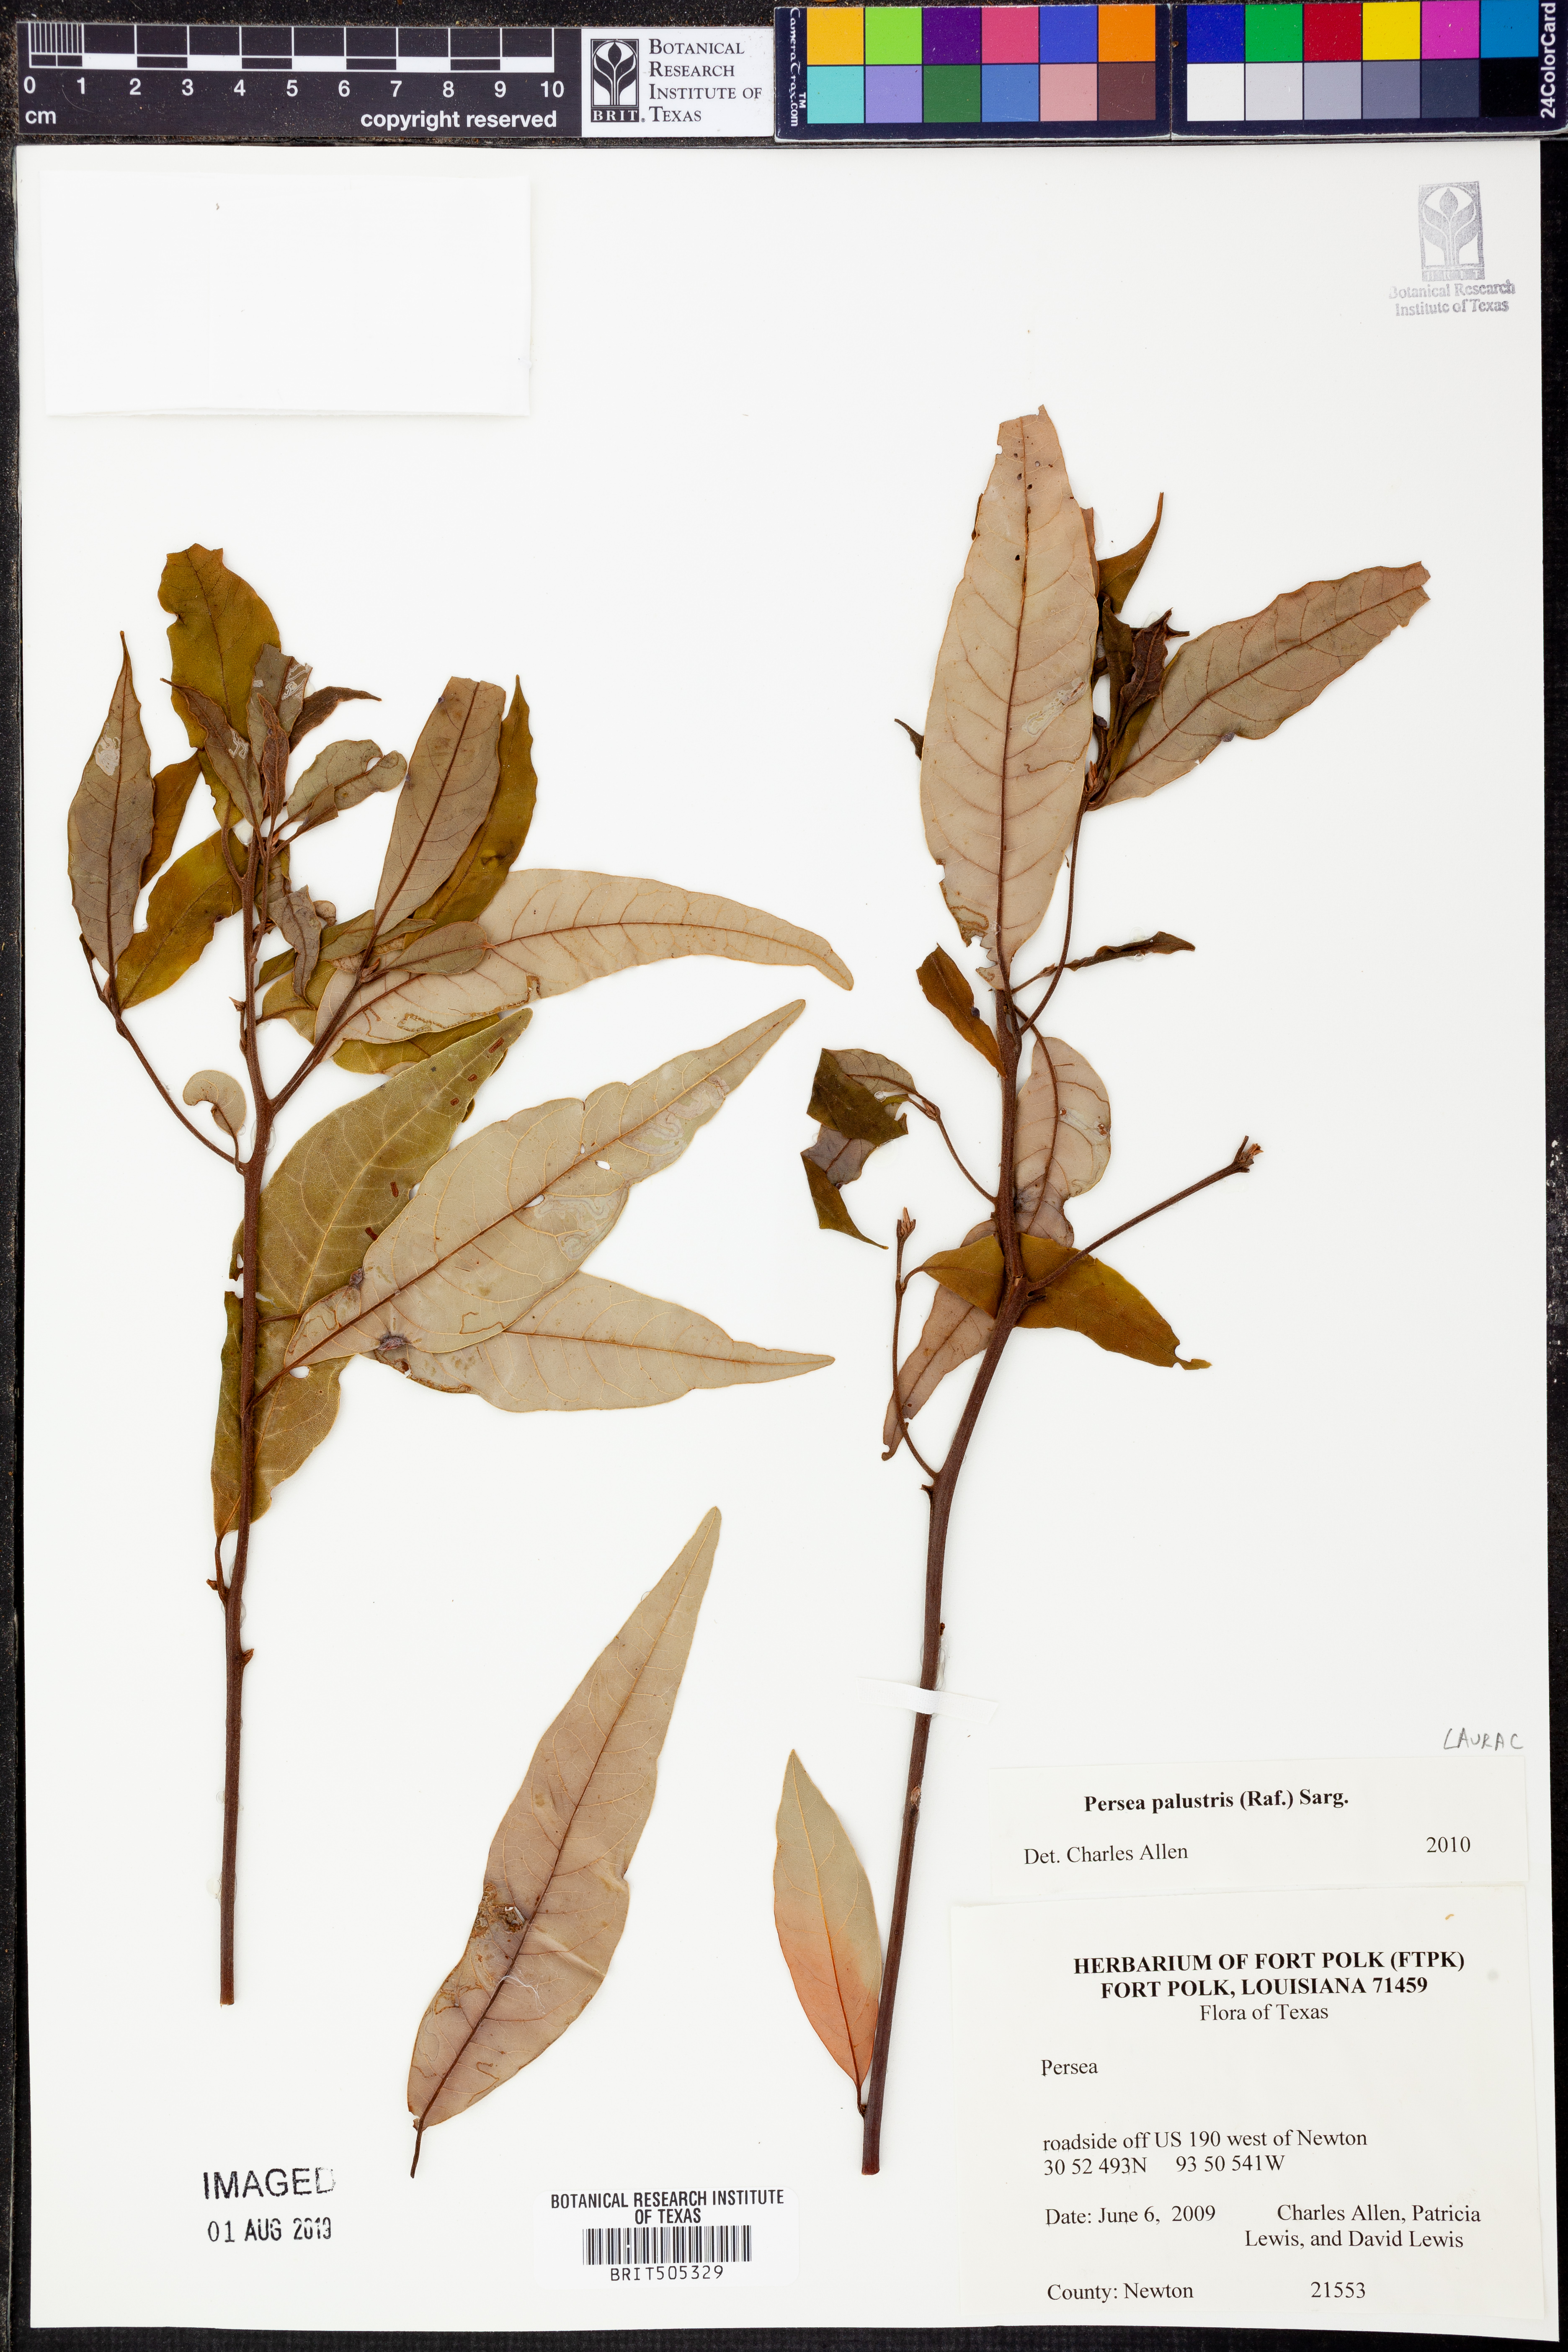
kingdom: Plantae
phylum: Tracheophyta
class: Magnoliopsida
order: Laurales
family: Lauraceae
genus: Persea
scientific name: Persea palustris
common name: Swampbay
